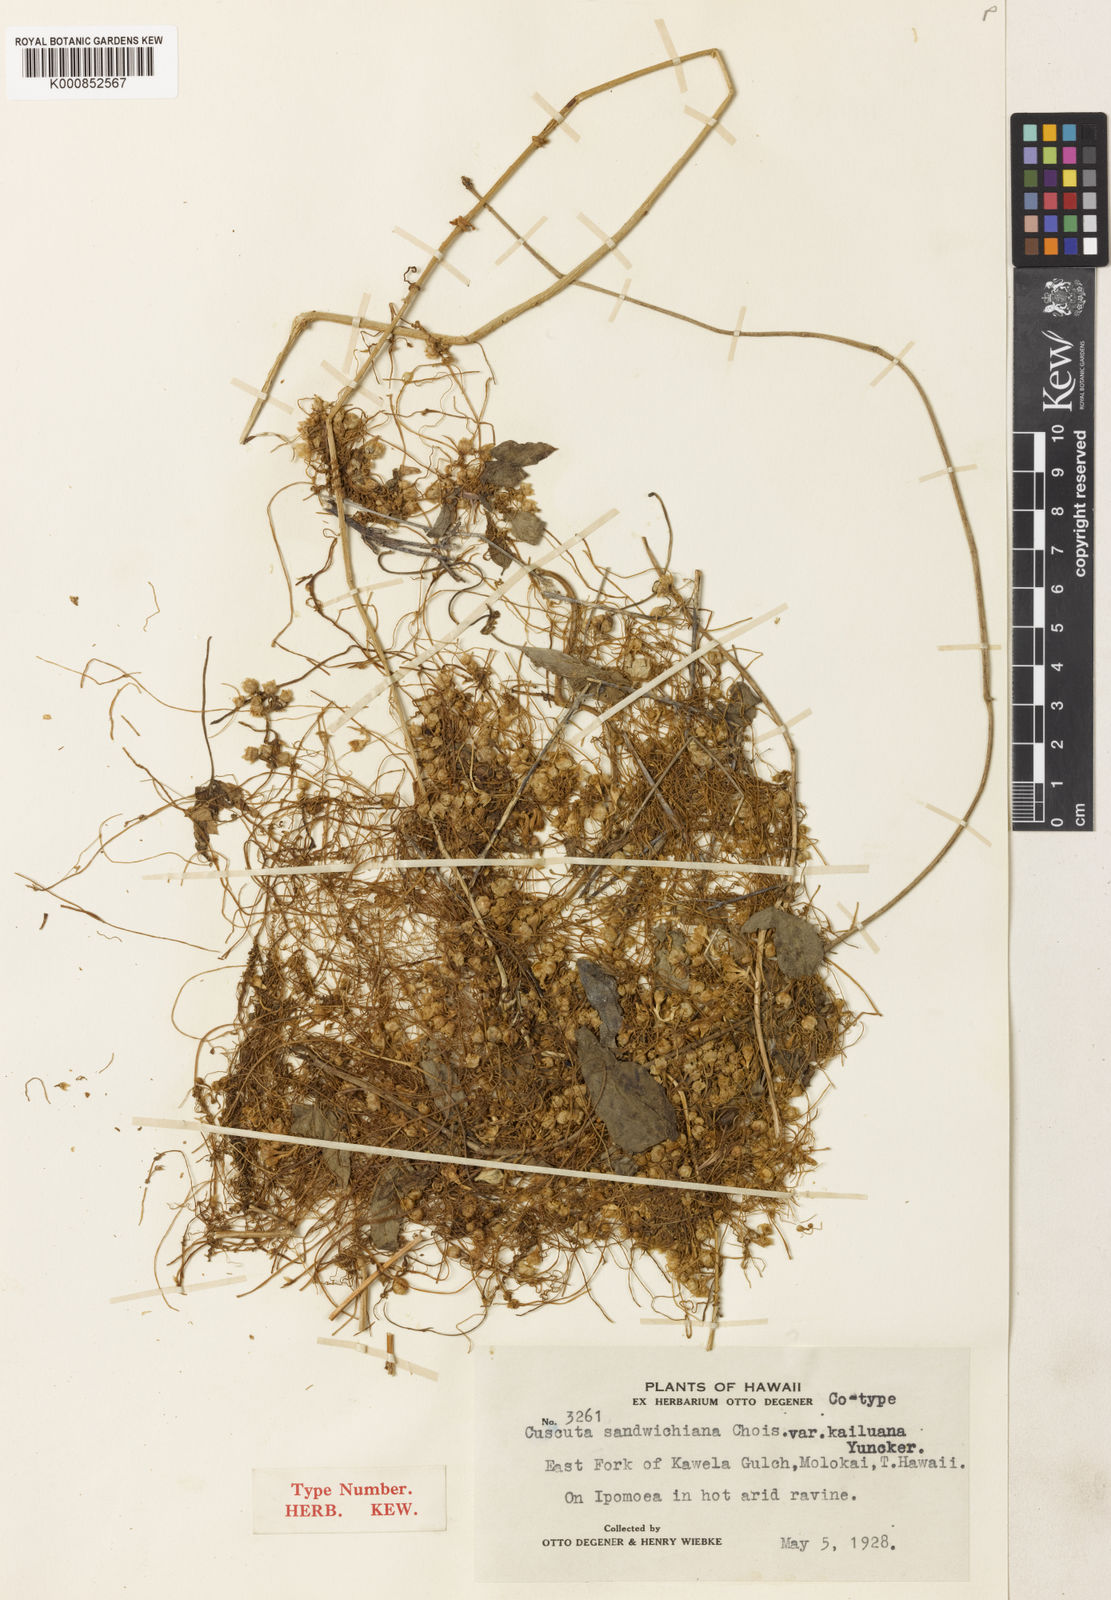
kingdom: Plantae
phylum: Tracheophyta
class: Magnoliopsida
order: Solanales
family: Convolvulaceae
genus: Cuscuta
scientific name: Cuscuta sandwichiana
